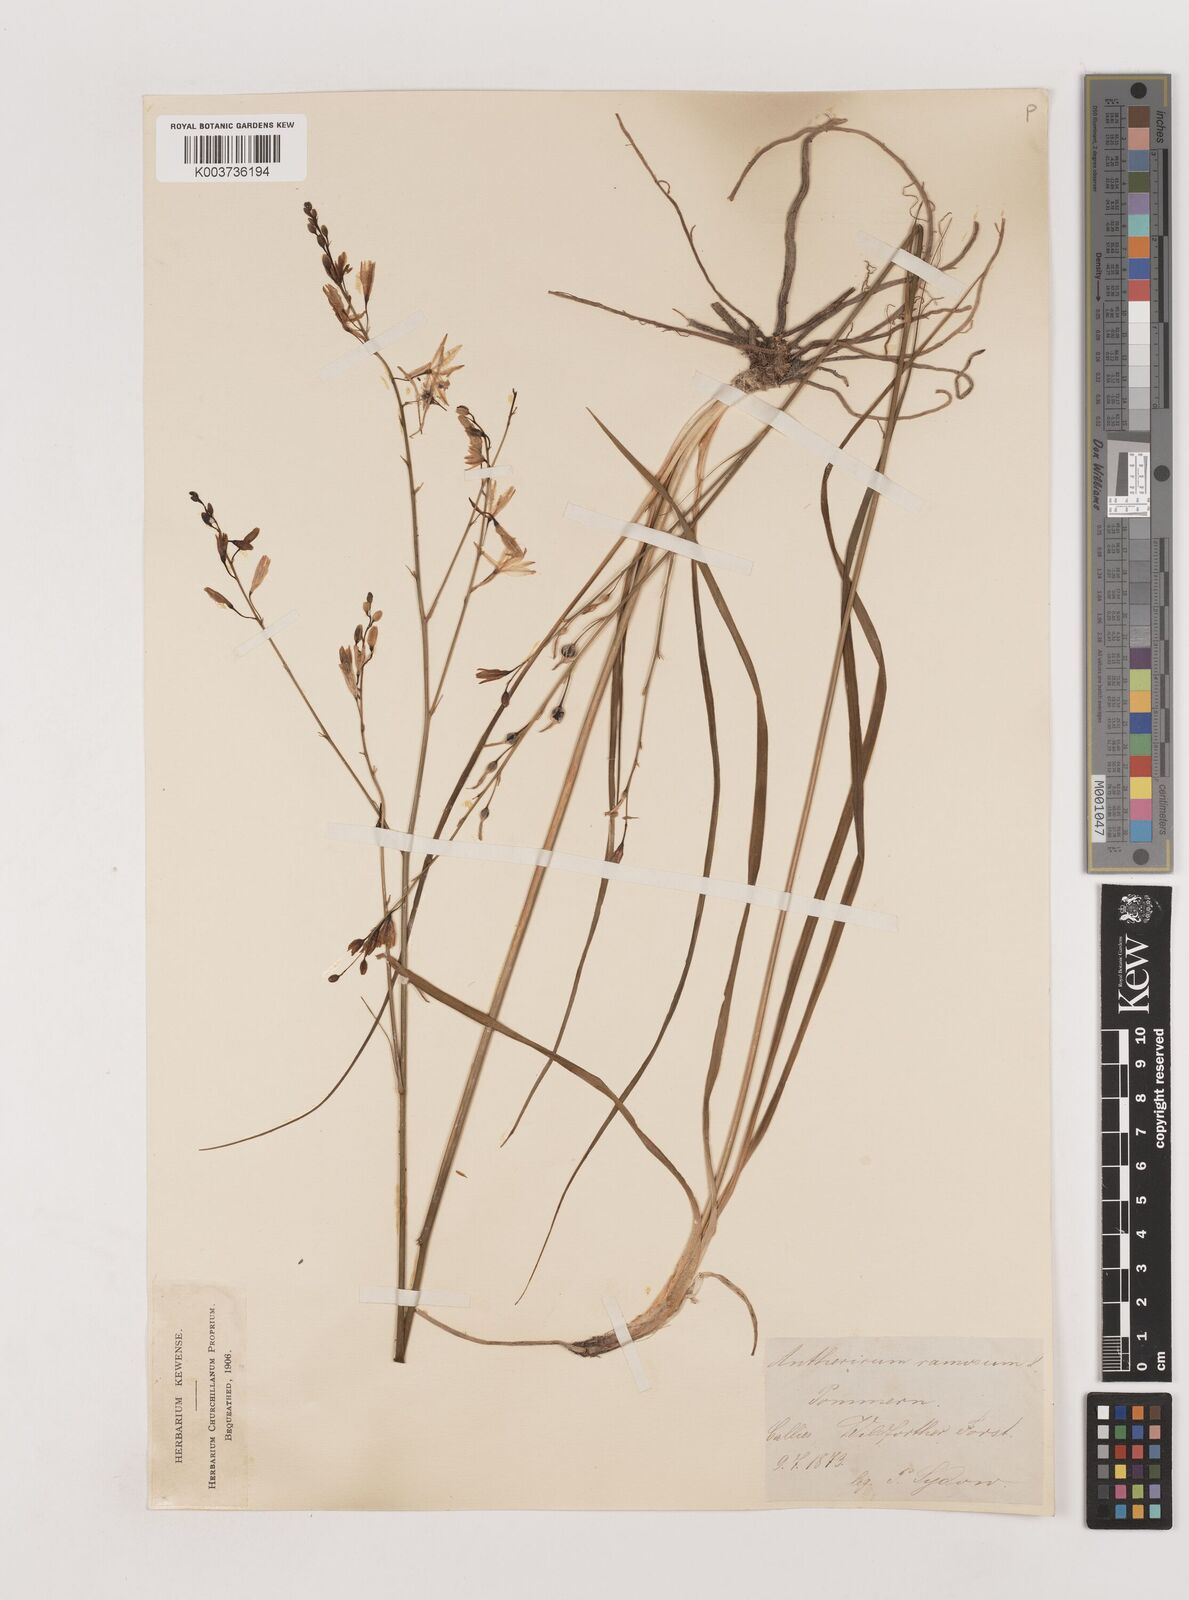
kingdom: Plantae
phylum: Tracheophyta
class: Liliopsida
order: Asparagales
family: Asparagaceae
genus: Anthericum
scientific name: Anthericum ramosum
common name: Branched st. bernard's-lily
